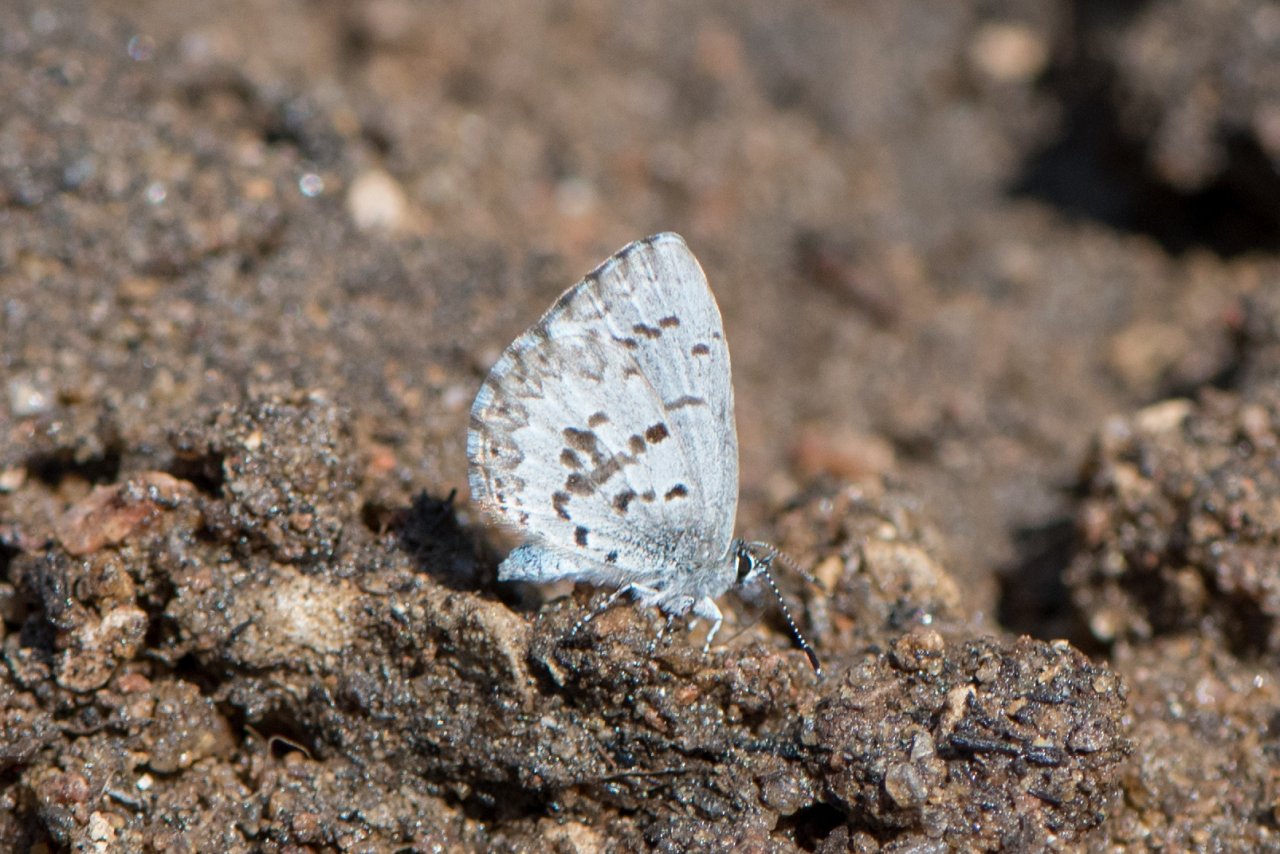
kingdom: Animalia
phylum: Arthropoda
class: Insecta
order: Lepidoptera
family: Lycaenidae
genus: Celastrina
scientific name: Celastrina
